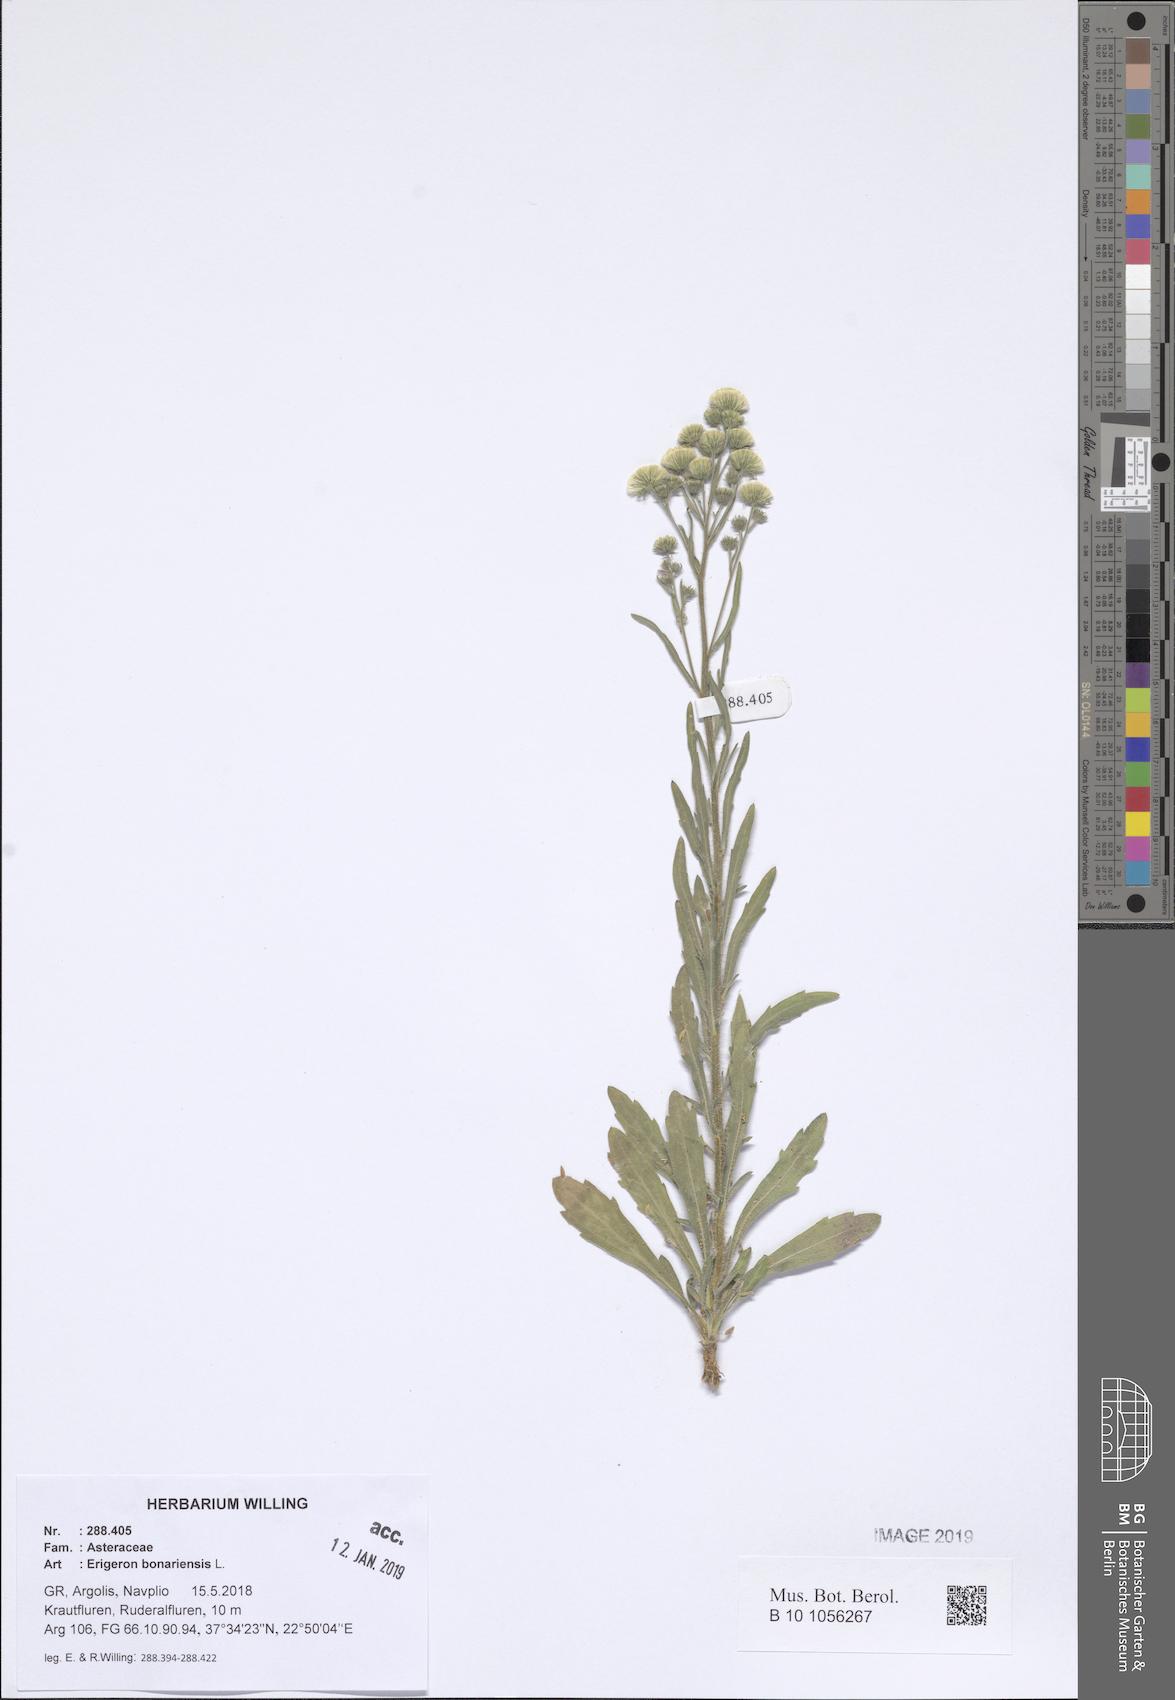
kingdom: Plantae
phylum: Tracheophyta
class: Magnoliopsida
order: Asterales
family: Asteraceae
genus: Erigeron
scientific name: Erigeron bonariensis
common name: Argentine fleabane
